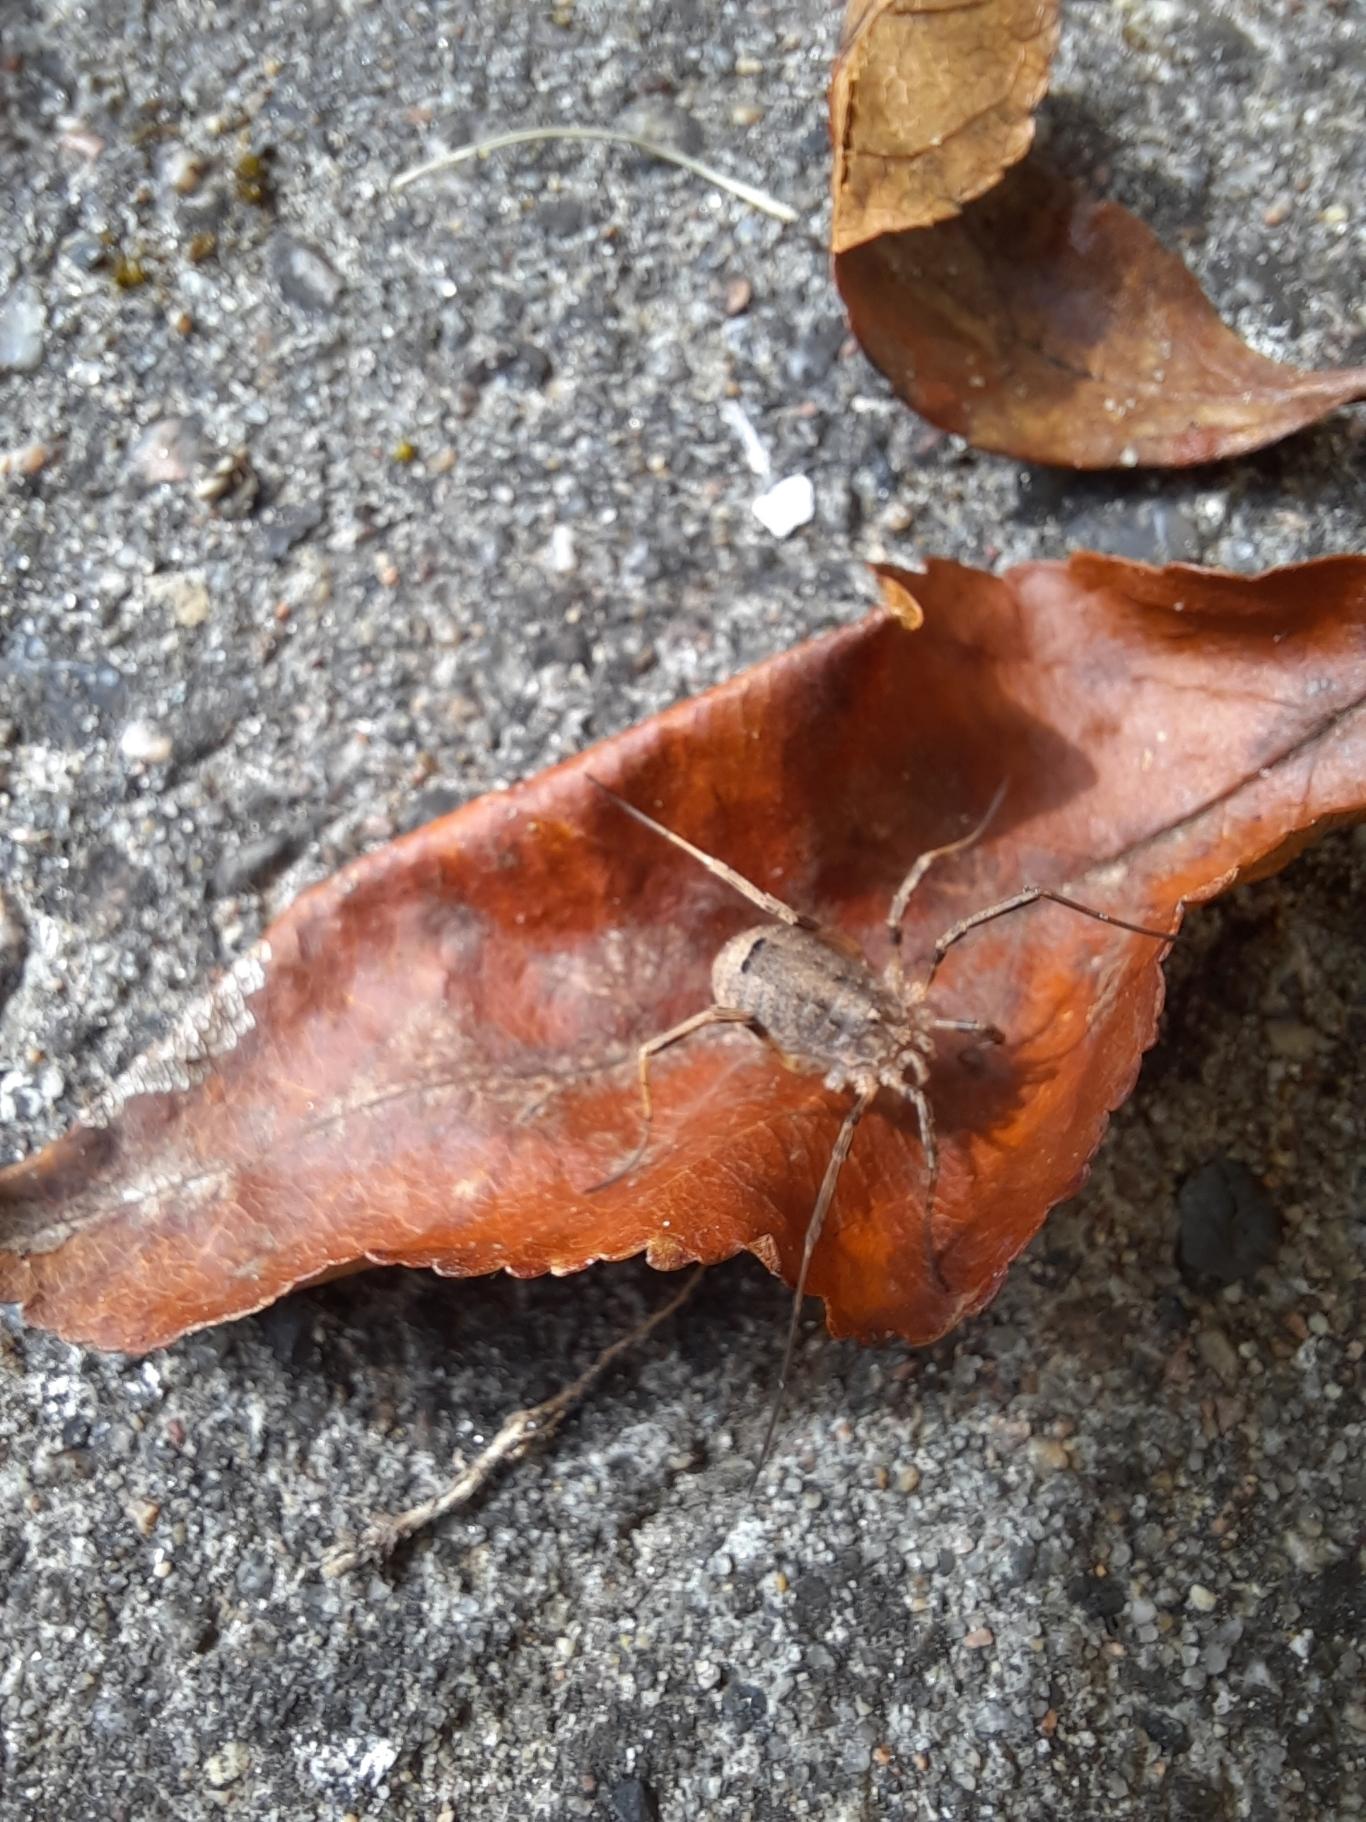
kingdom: Animalia
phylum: Arthropoda
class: Arachnida
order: Opiliones
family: Phalangiidae
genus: Odiellus
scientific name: Odiellus spinosus
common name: Kæmpemejer
